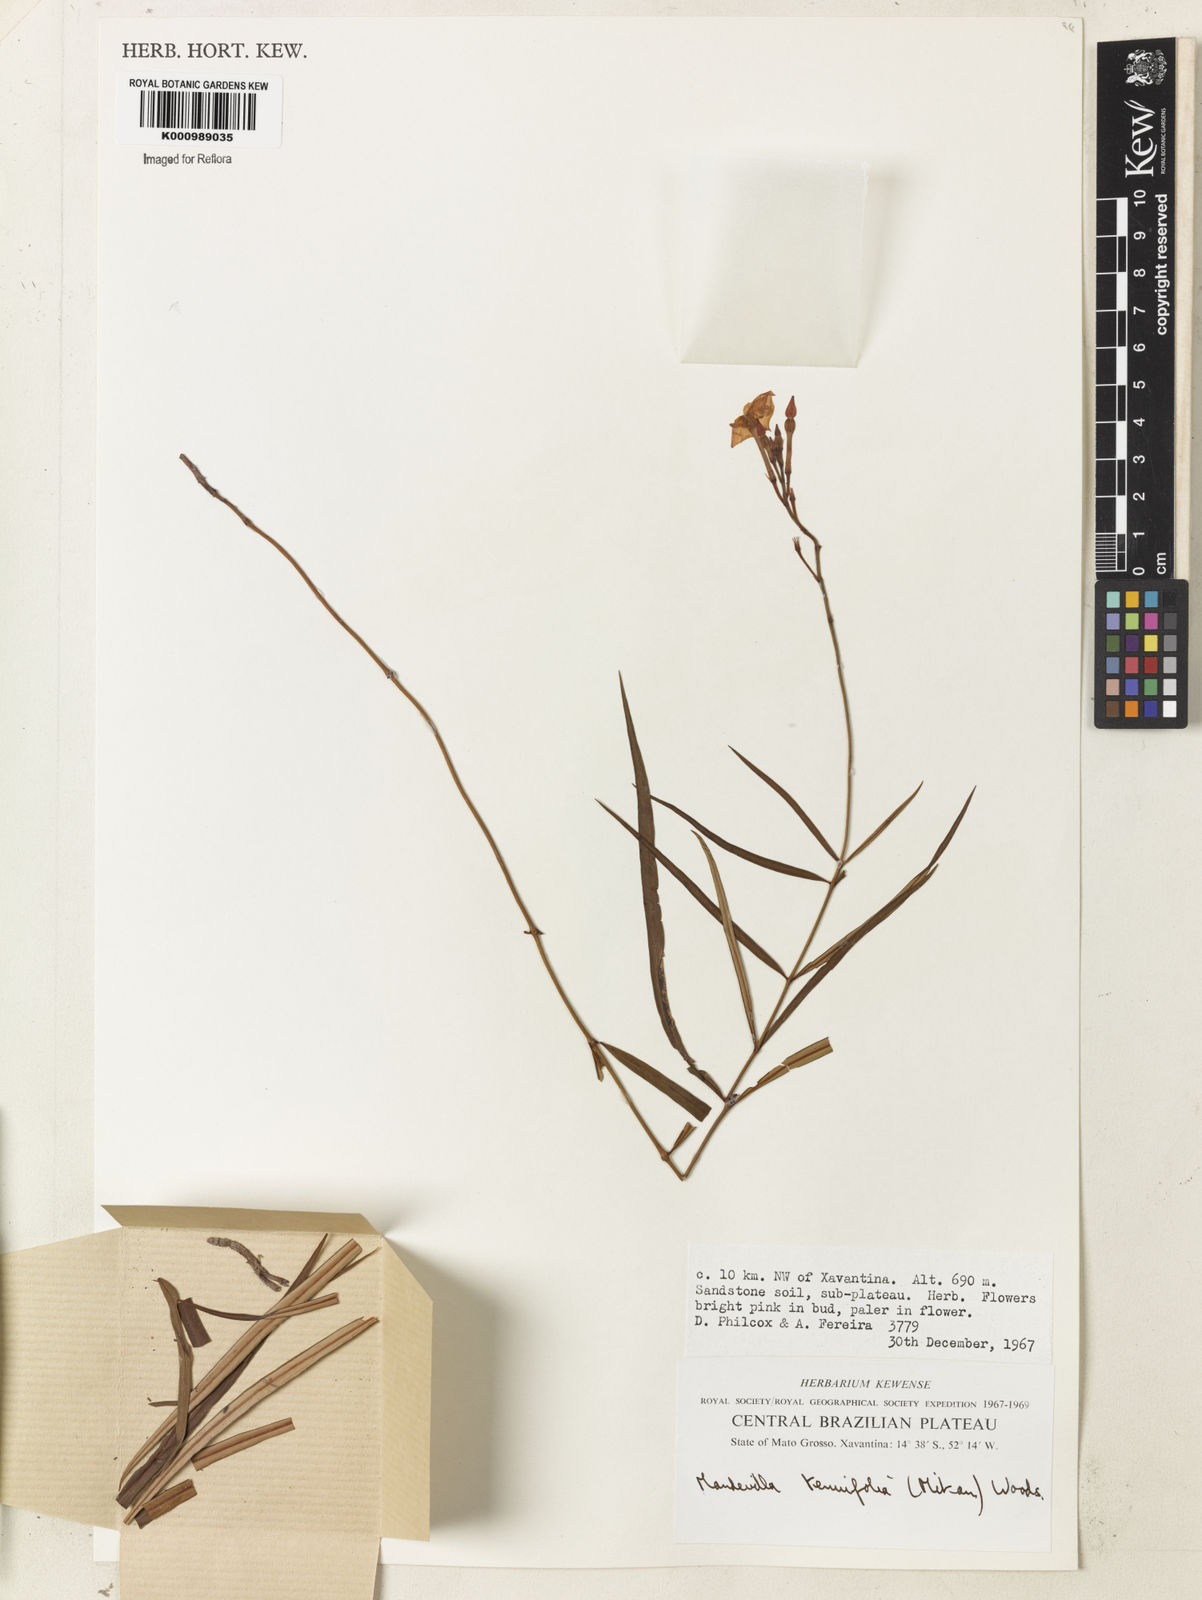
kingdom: Plantae
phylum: Tracheophyta
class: Magnoliopsida
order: Gentianales
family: Apocynaceae
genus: Mandevilla
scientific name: Mandevilla tenuifolia
